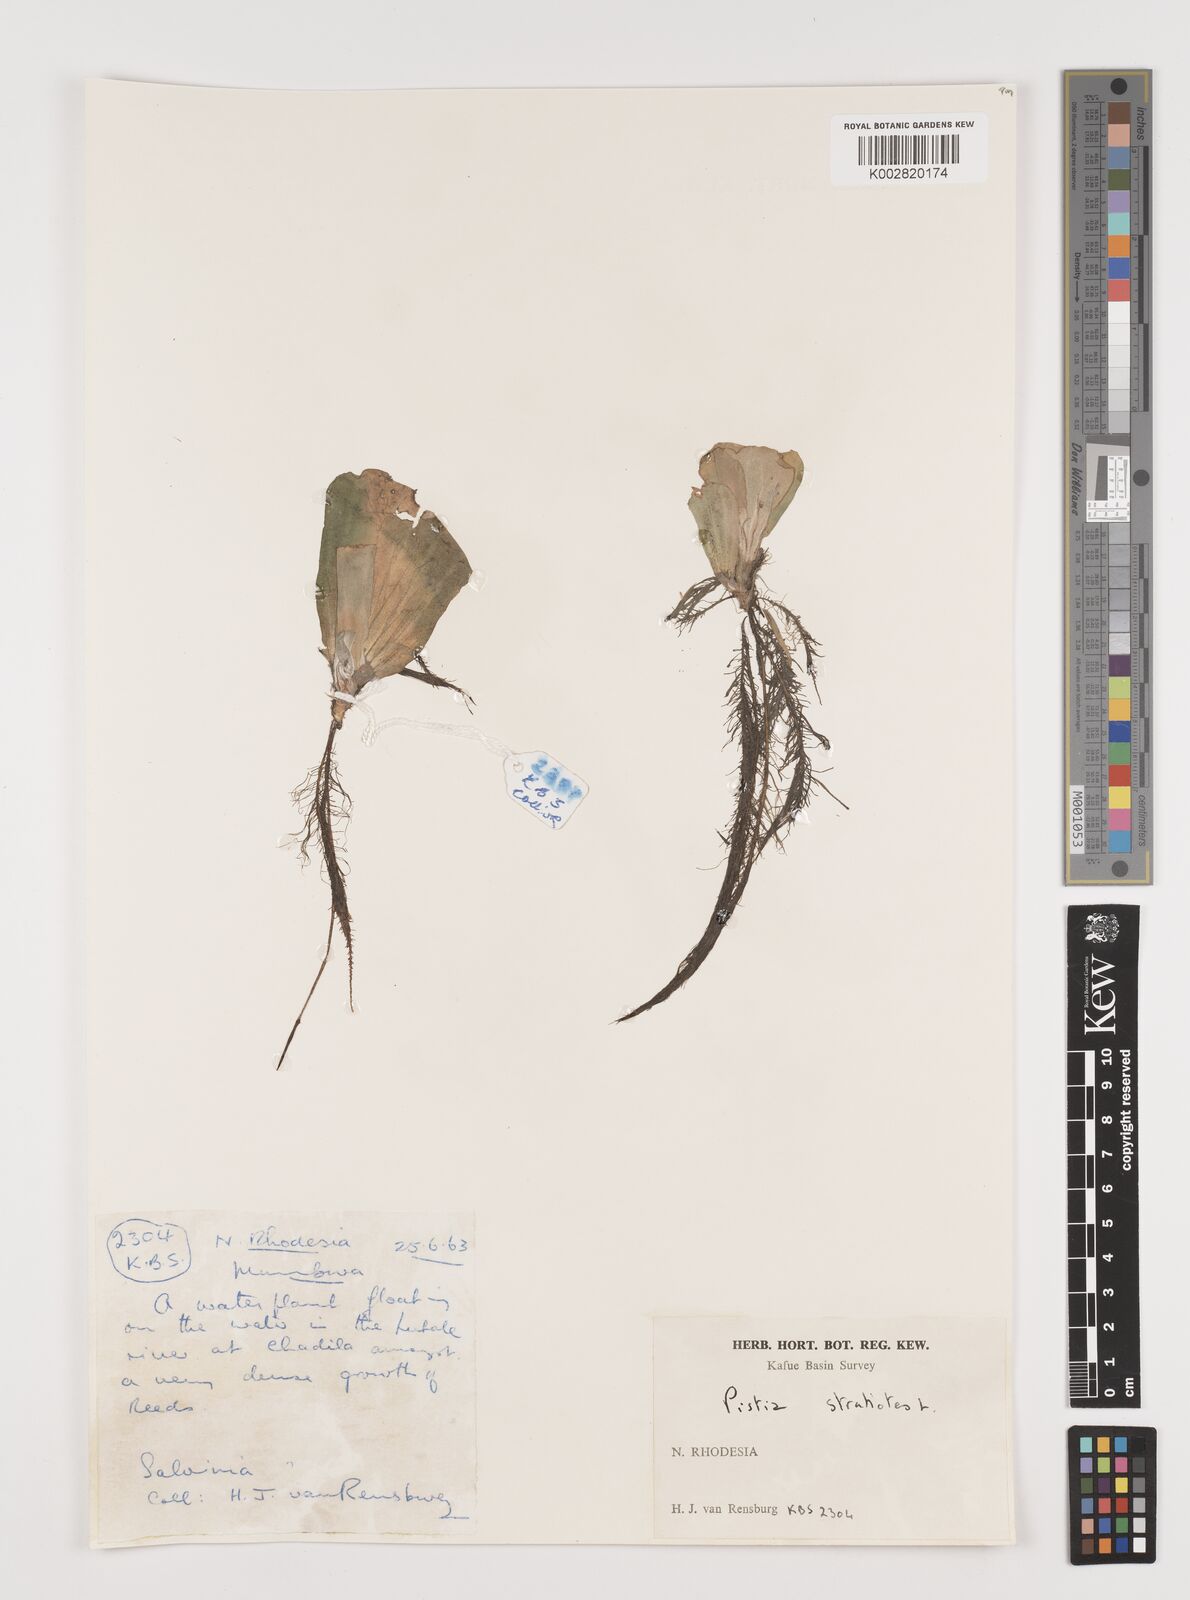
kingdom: Plantae
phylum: Tracheophyta
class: Liliopsida
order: Alismatales
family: Araceae
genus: Pistia
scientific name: Pistia stratiotes
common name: Water lettuce
